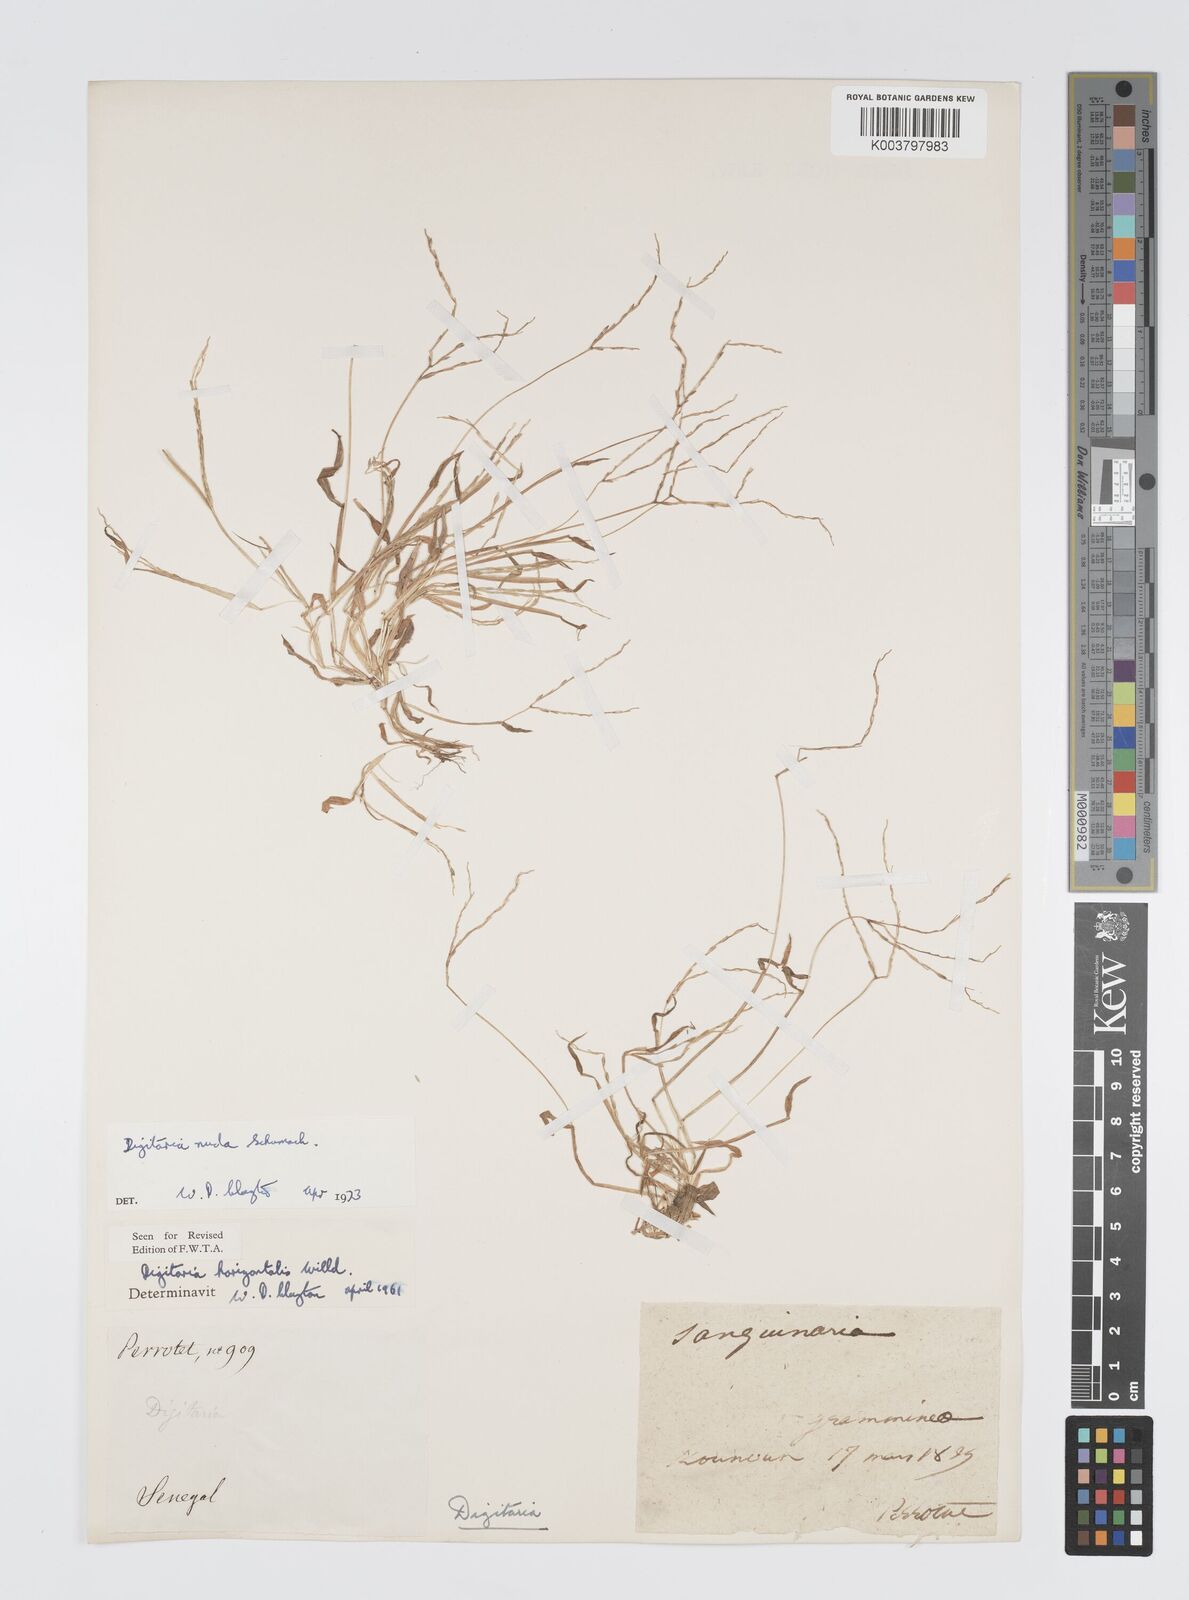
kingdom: Plantae
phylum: Tracheophyta
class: Liliopsida
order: Poales
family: Poaceae
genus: Digitaria
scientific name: Digitaria nuda
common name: Naked crabgrass
